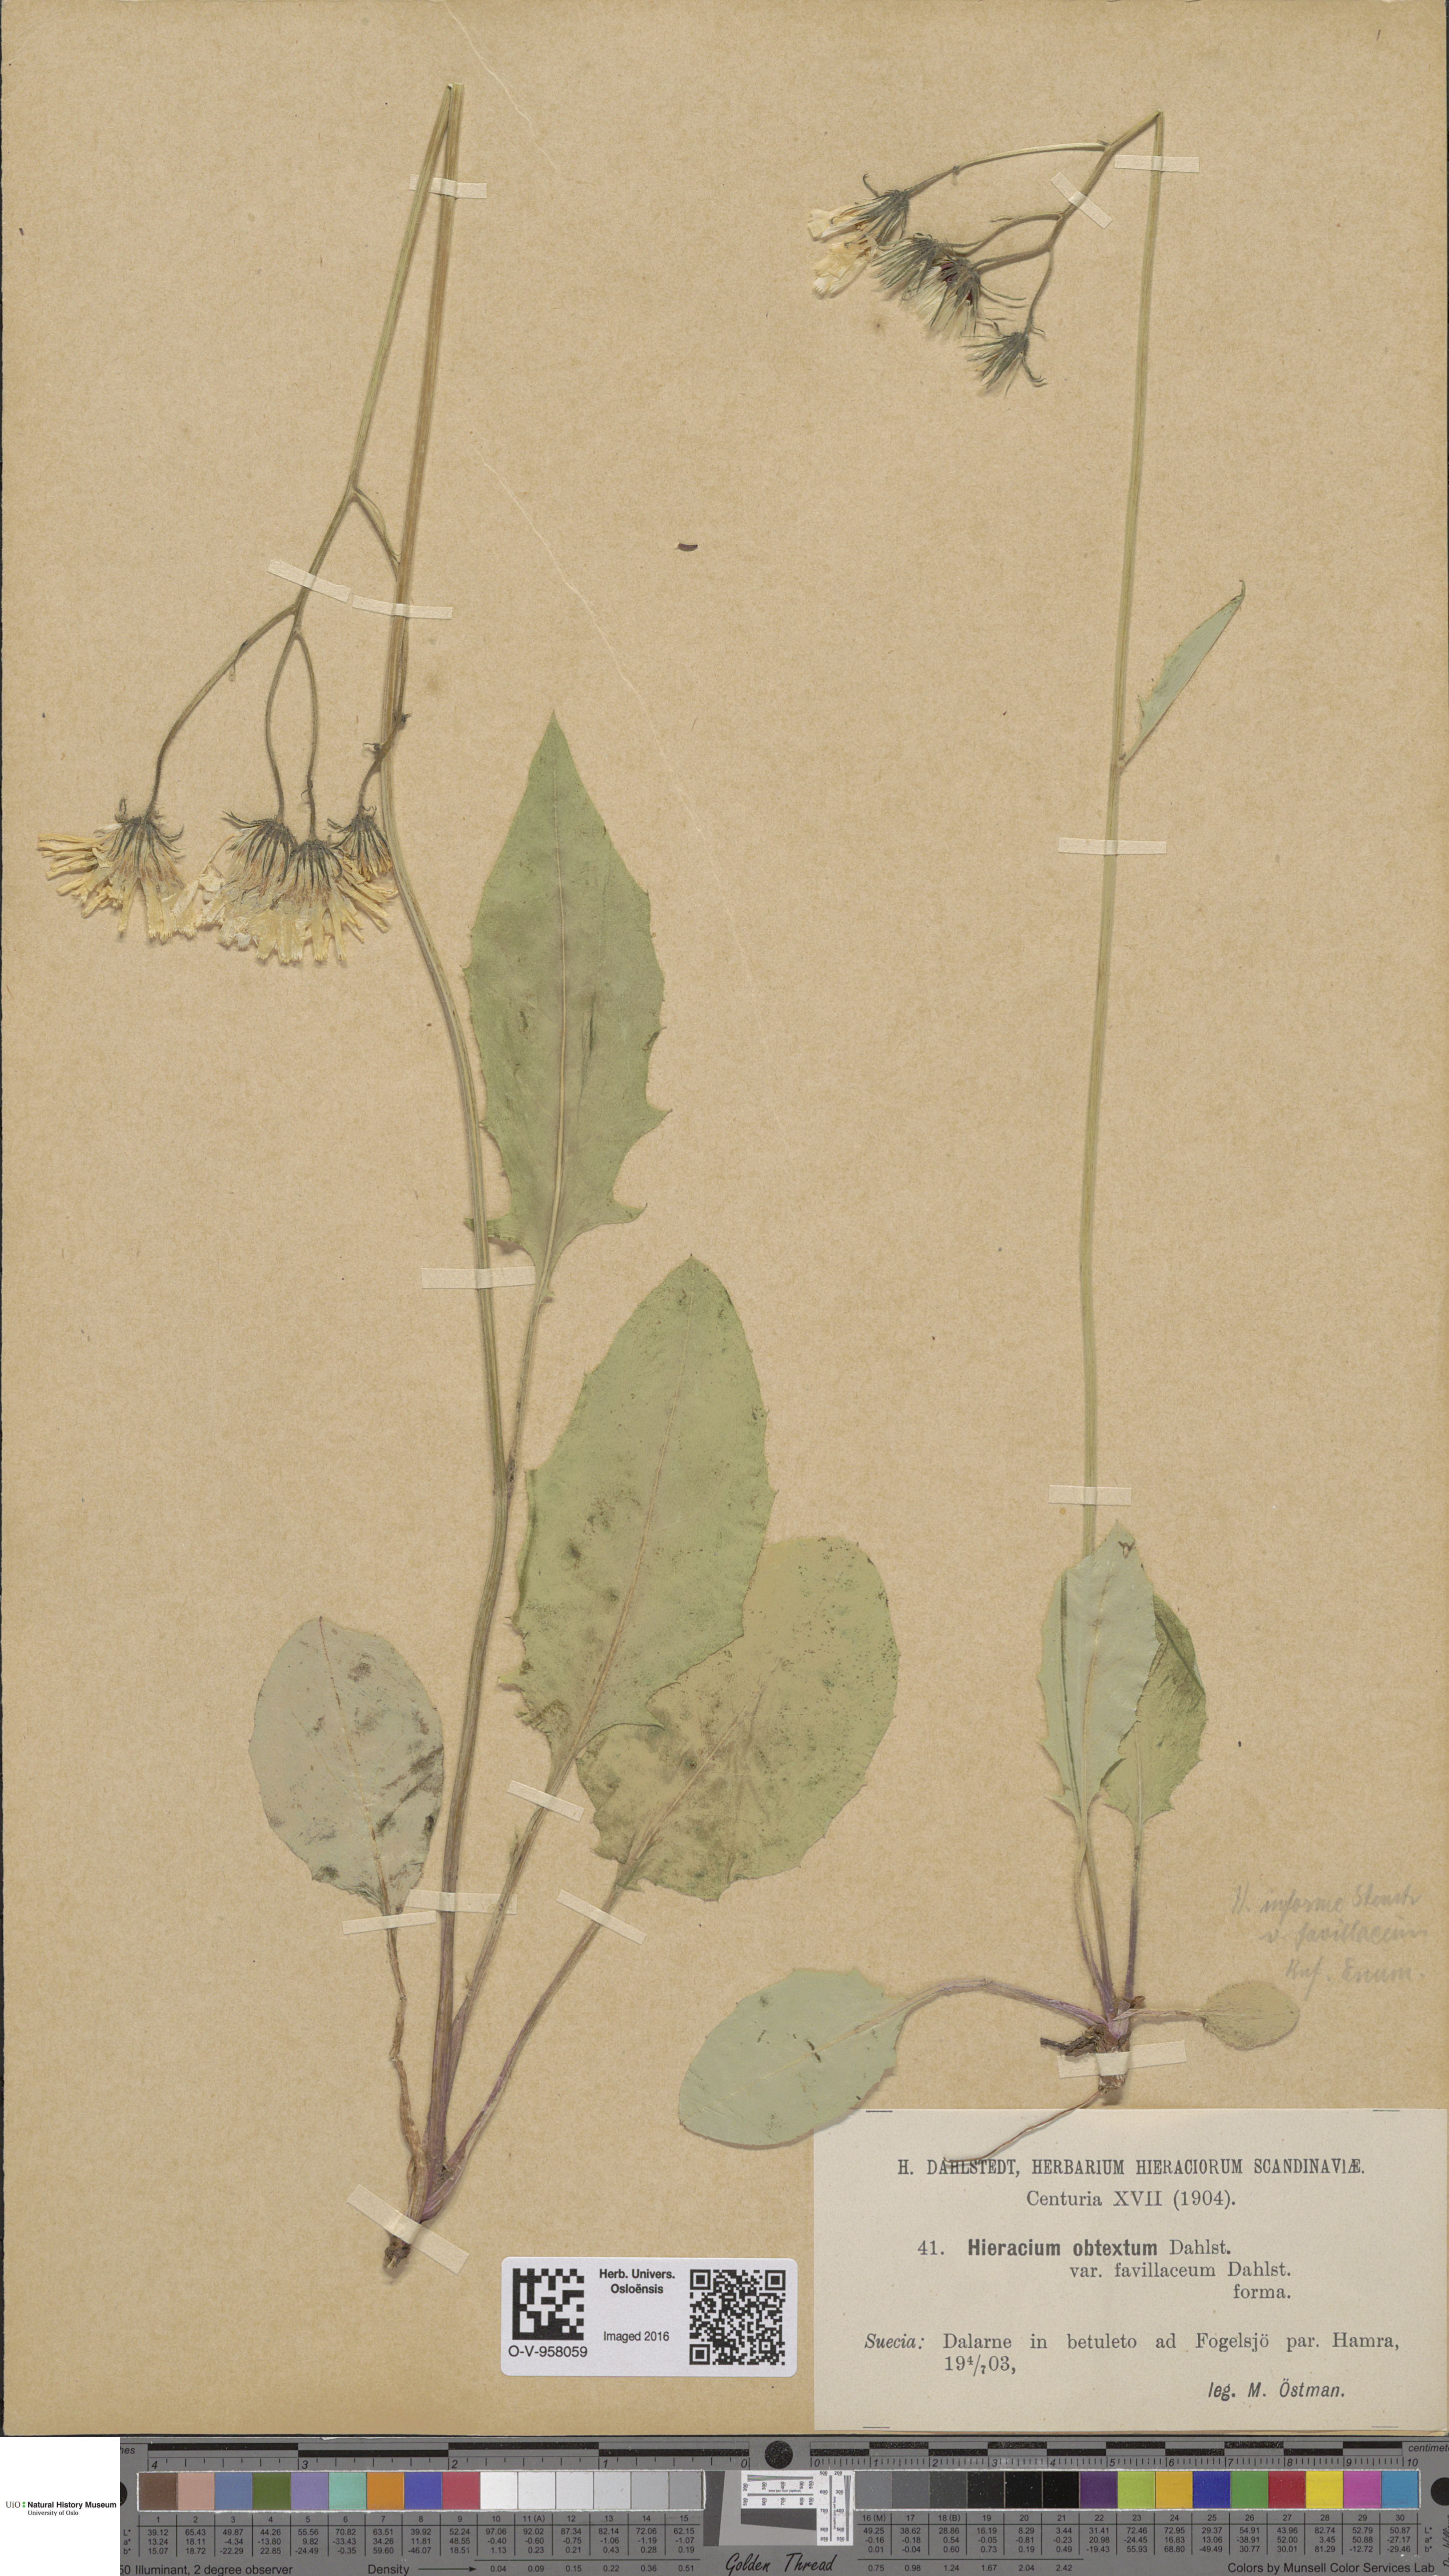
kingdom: Plantae
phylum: Tracheophyta
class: Magnoliopsida
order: Asterales
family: Asteraceae
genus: Hieracium
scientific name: Hieracium obtextum
